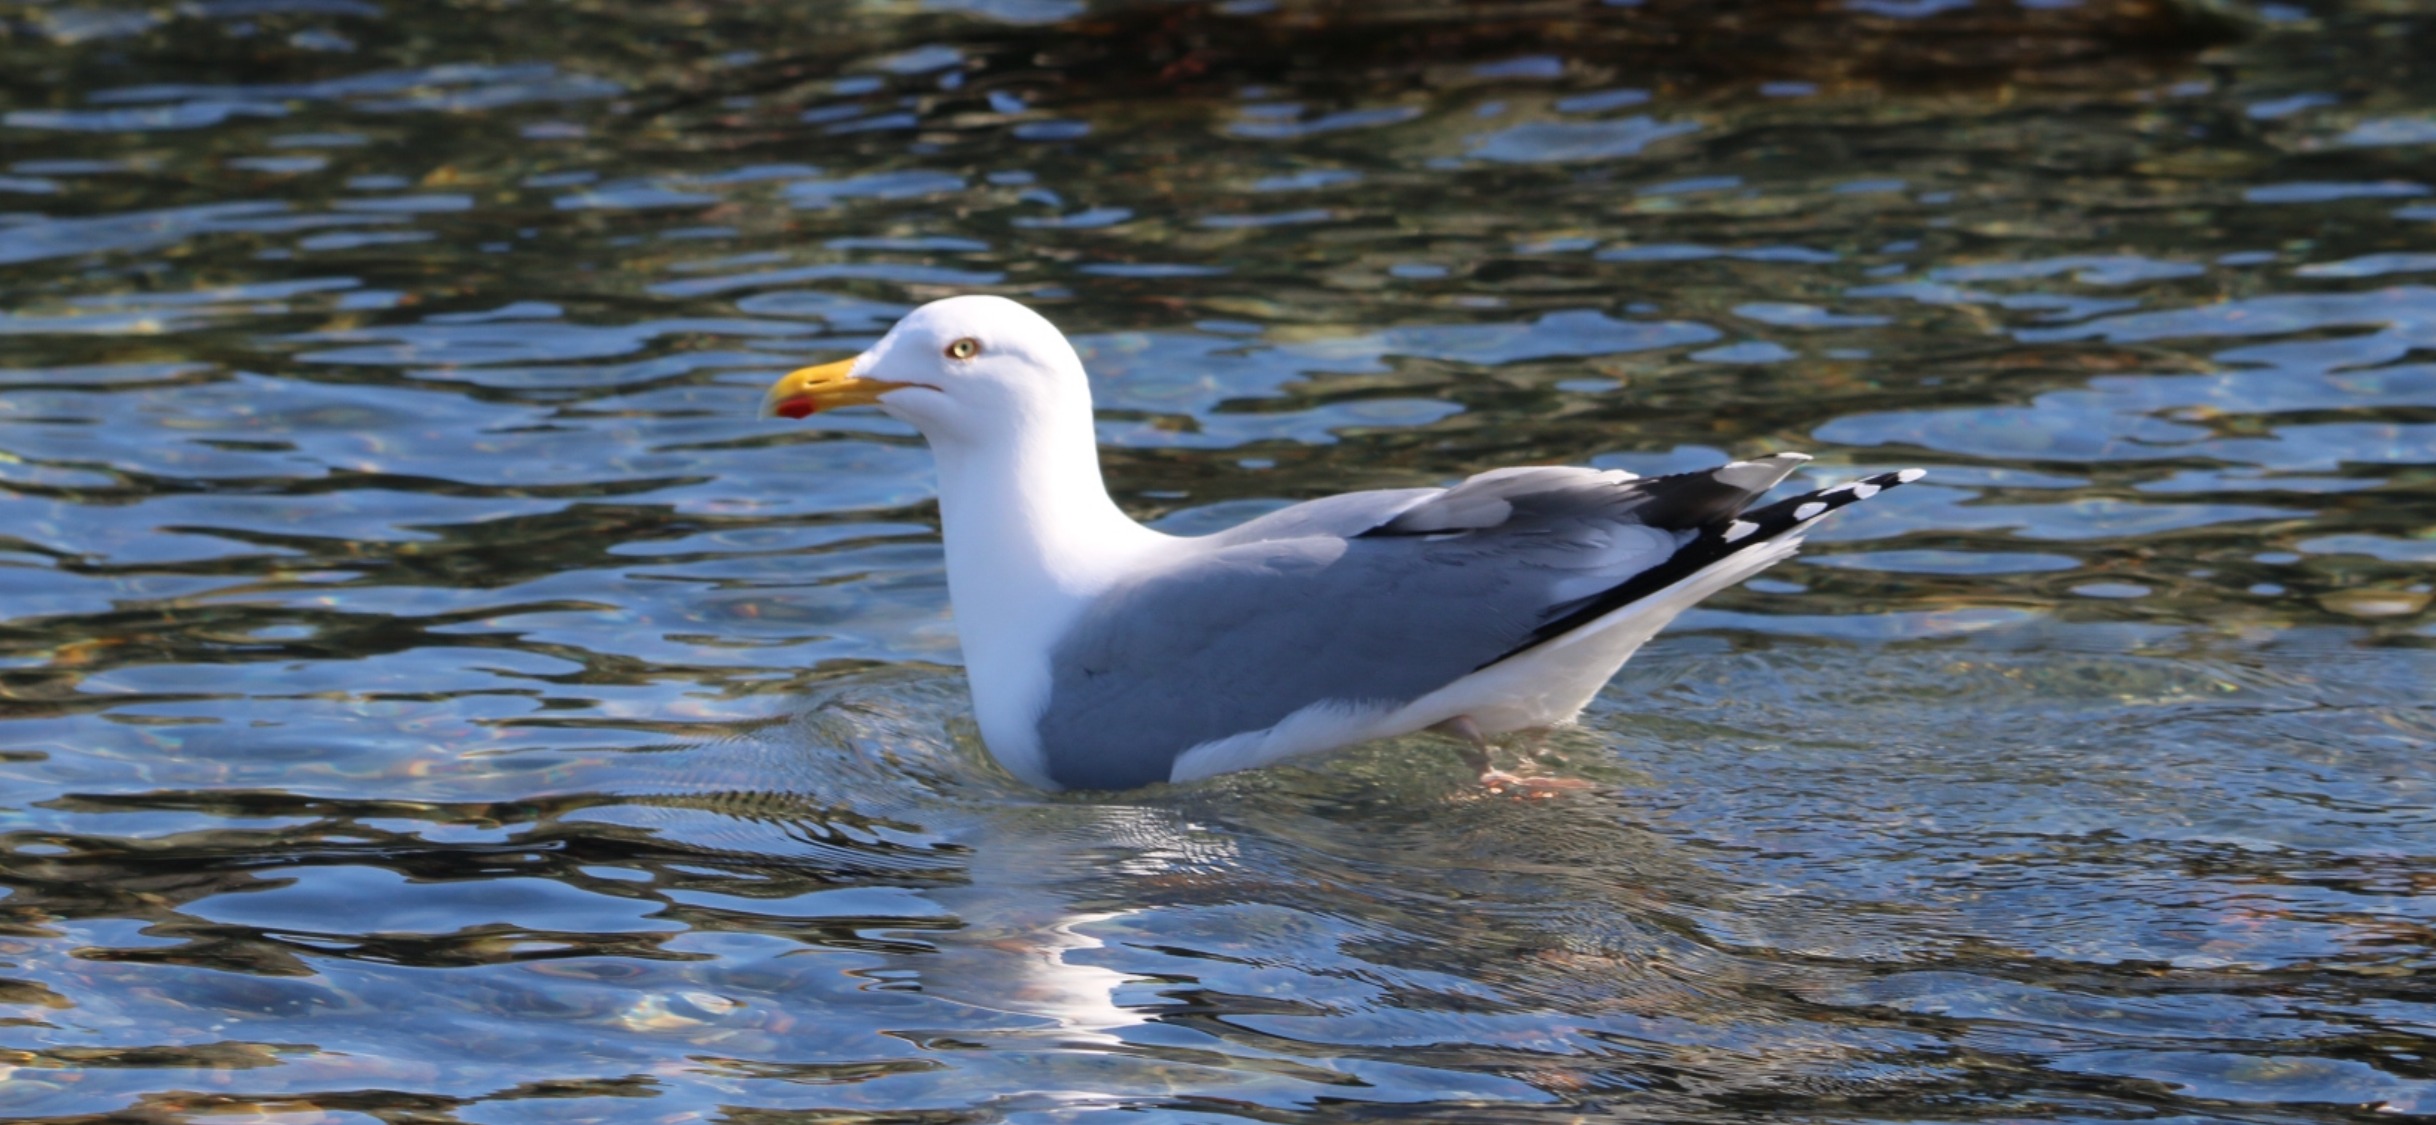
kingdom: Animalia
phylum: Chordata
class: Aves
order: Charadriiformes
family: Laridae
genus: Larus
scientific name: Larus argentatus
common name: Sølvmåge
